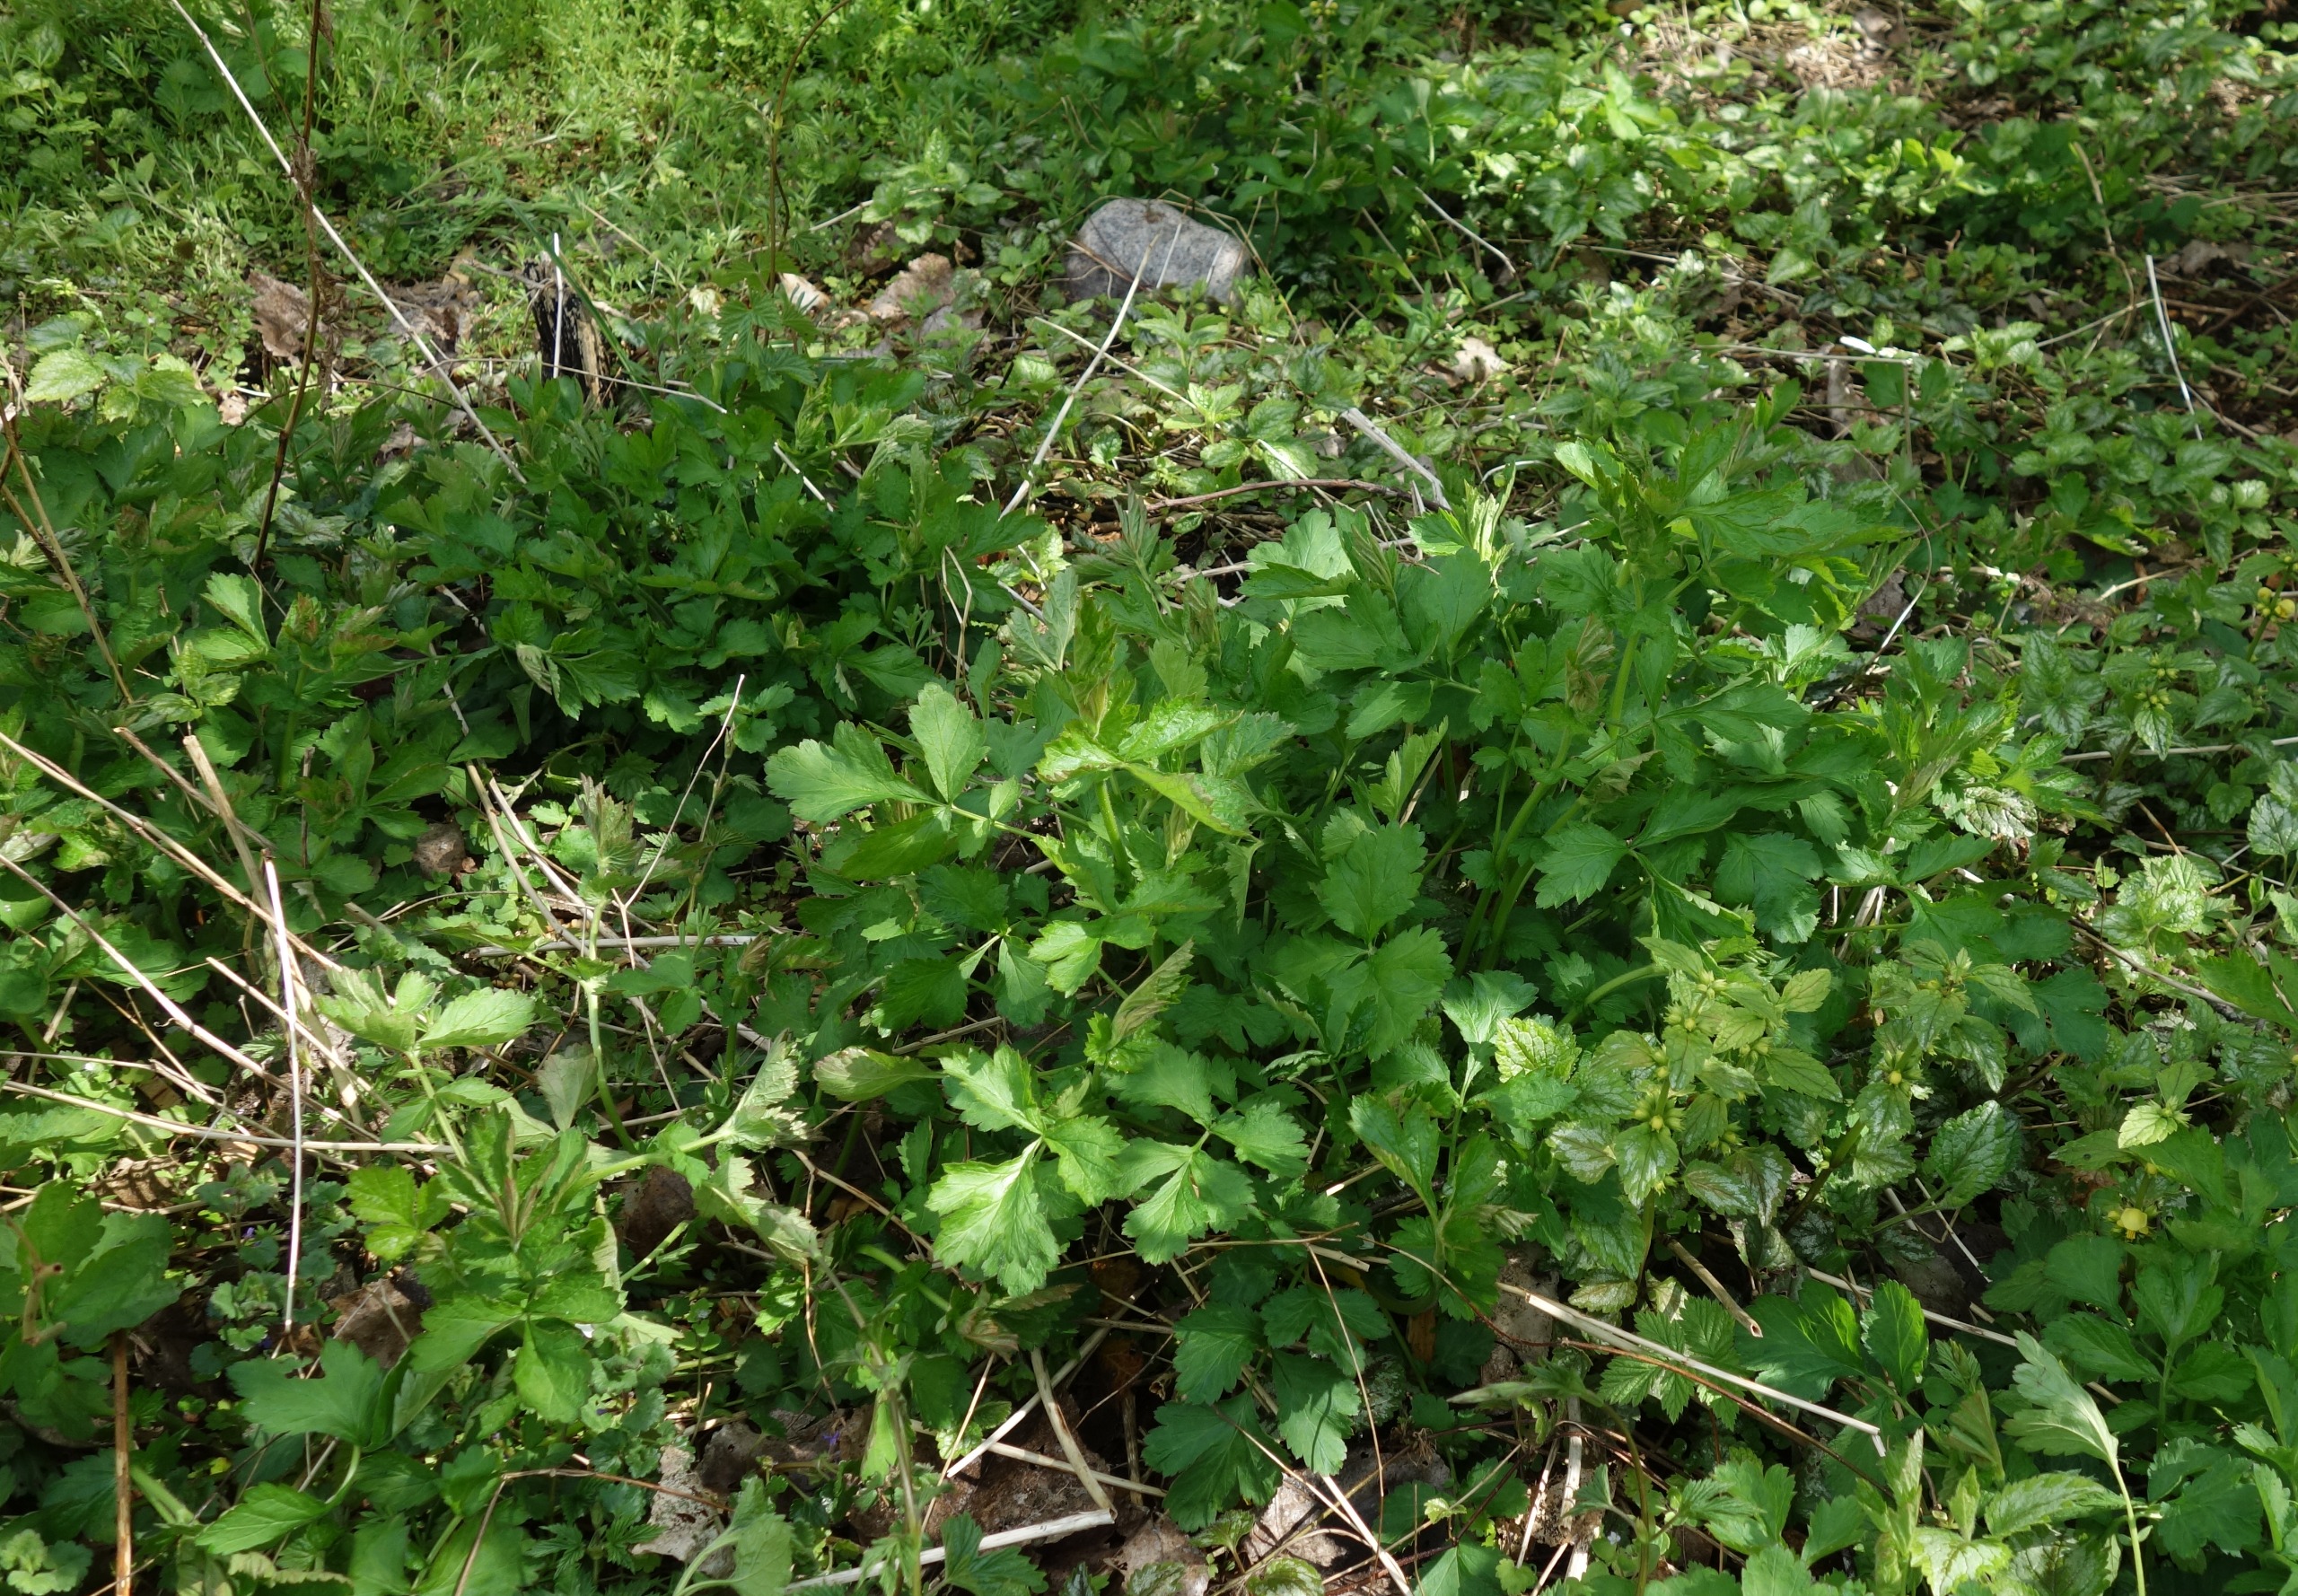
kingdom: Plantae
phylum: Tracheophyta
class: Magnoliopsida
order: Rosales
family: Rosaceae
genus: Geum
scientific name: Geum urbanum
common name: Feber-nellikerod
